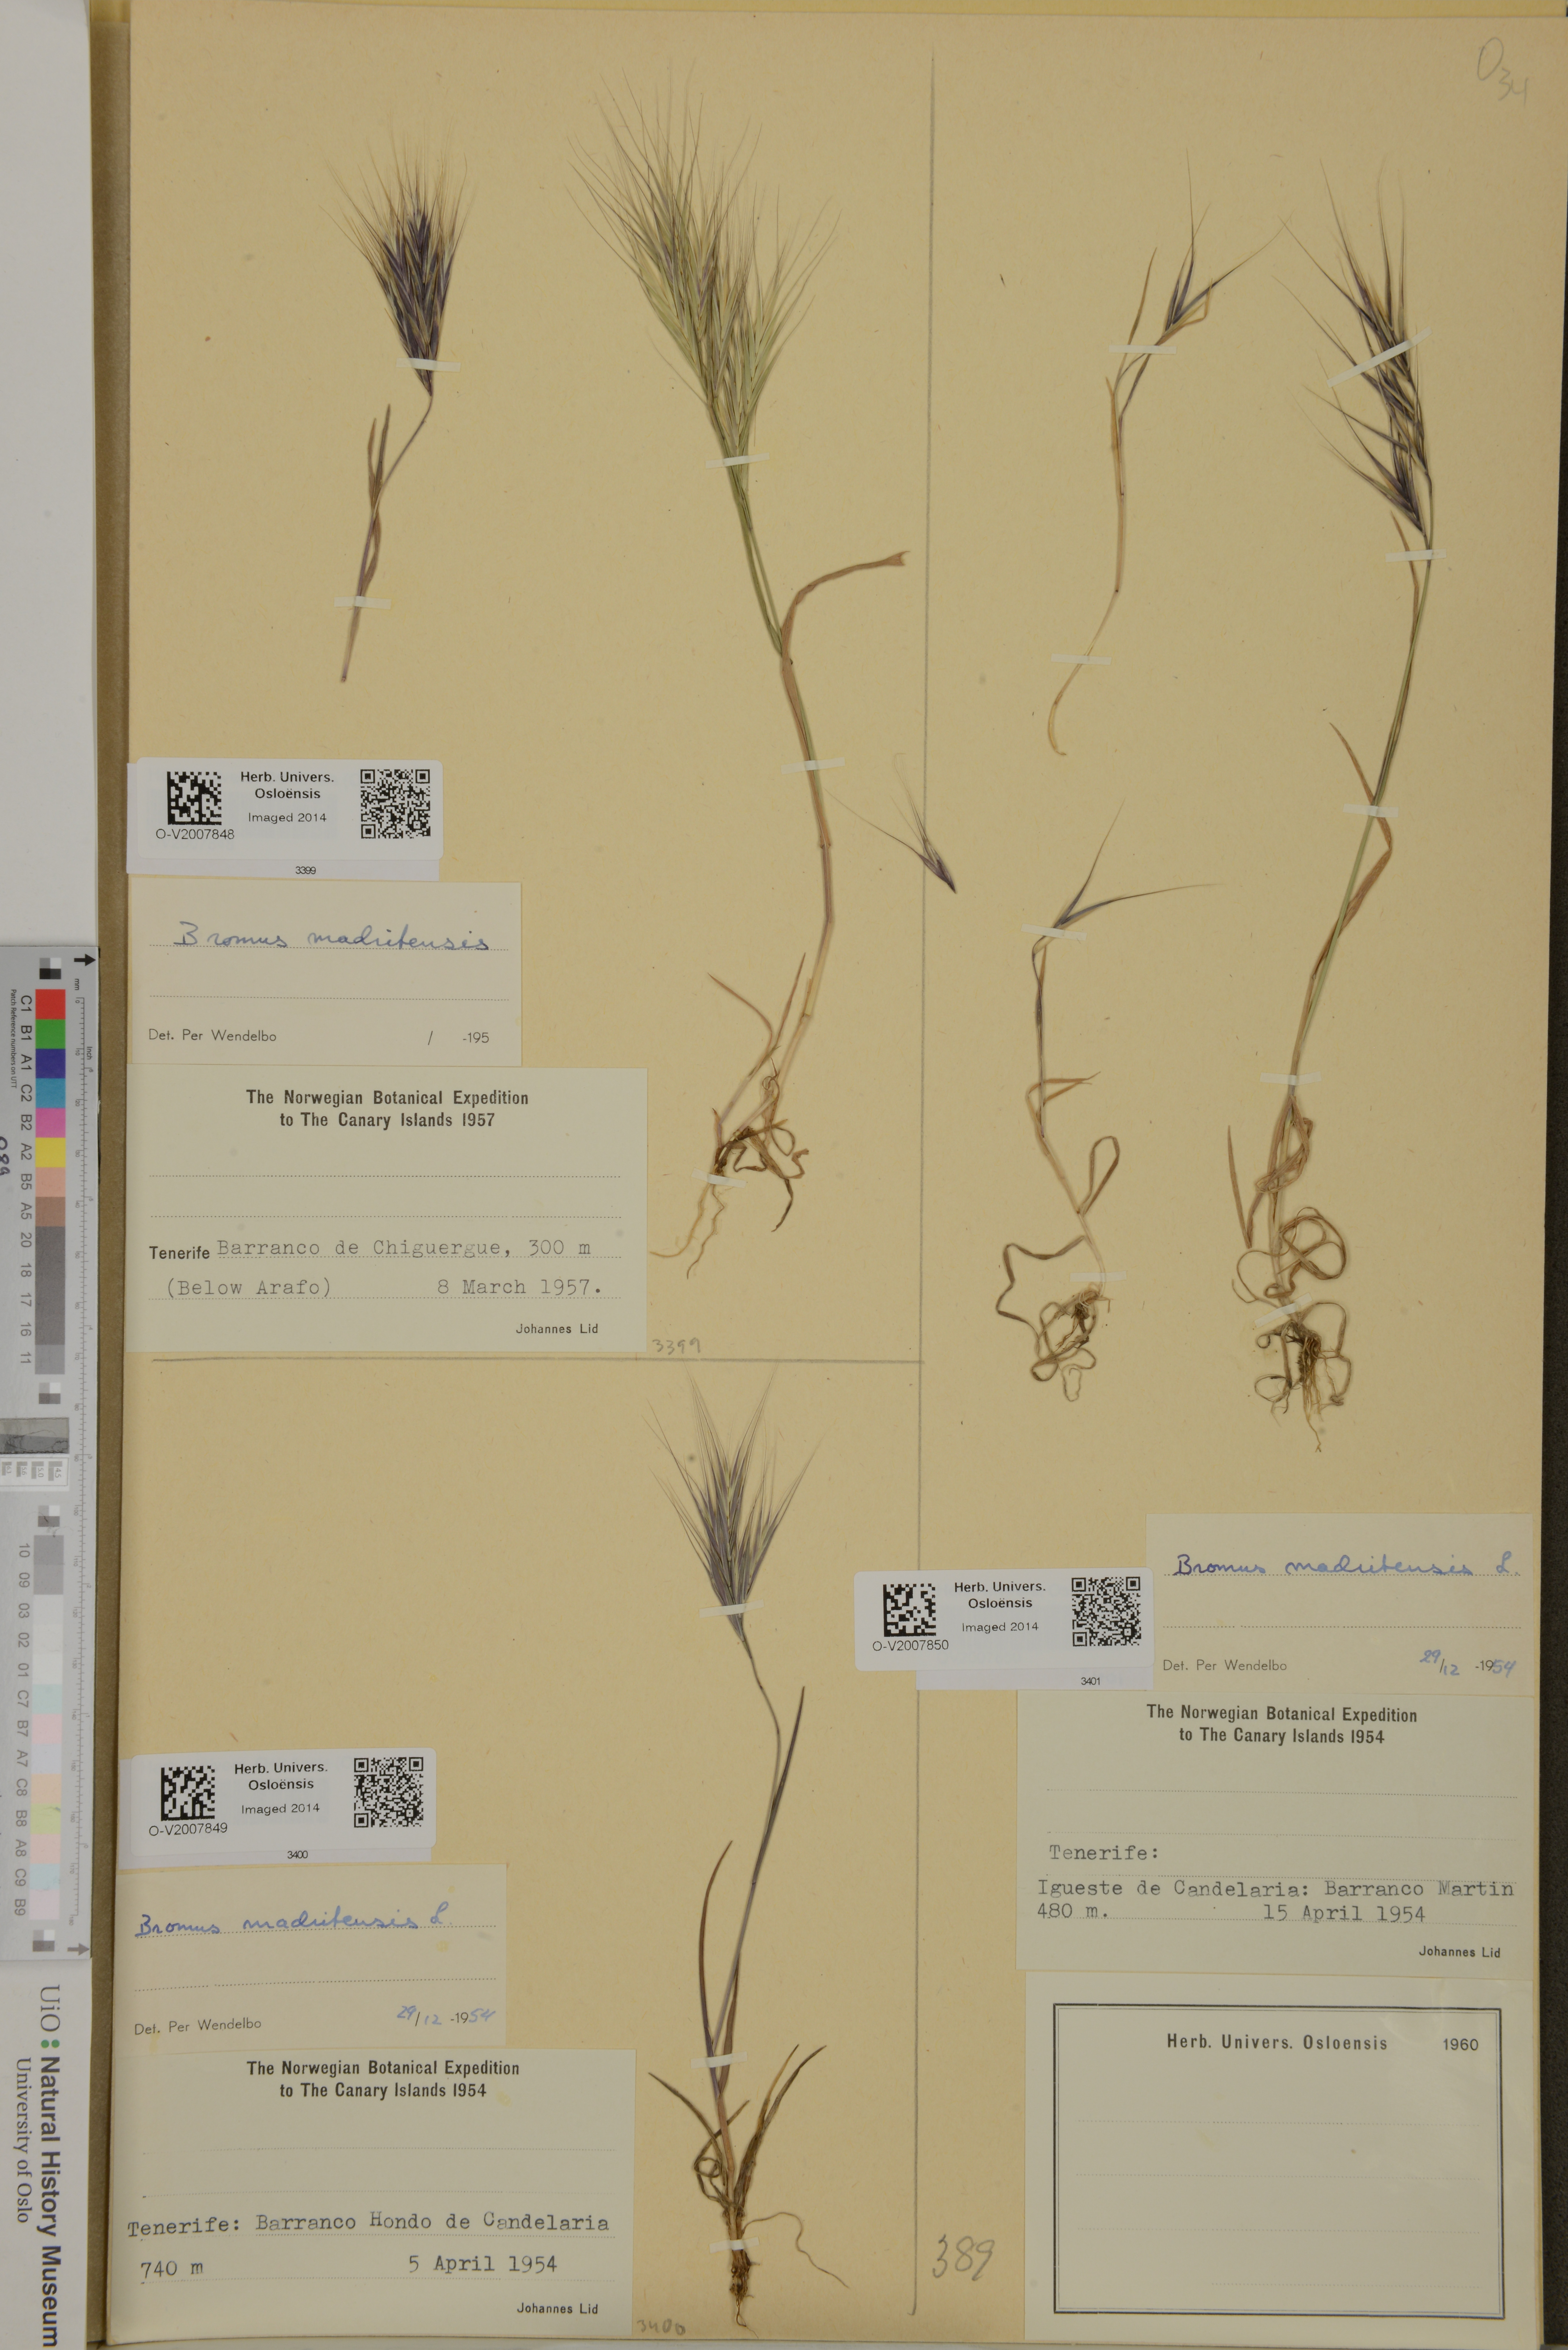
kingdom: Plantae
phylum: Tracheophyta
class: Liliopsida
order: Poales
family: Poaceae
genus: Bromus
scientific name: Bromus madritensis
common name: Compact brome
